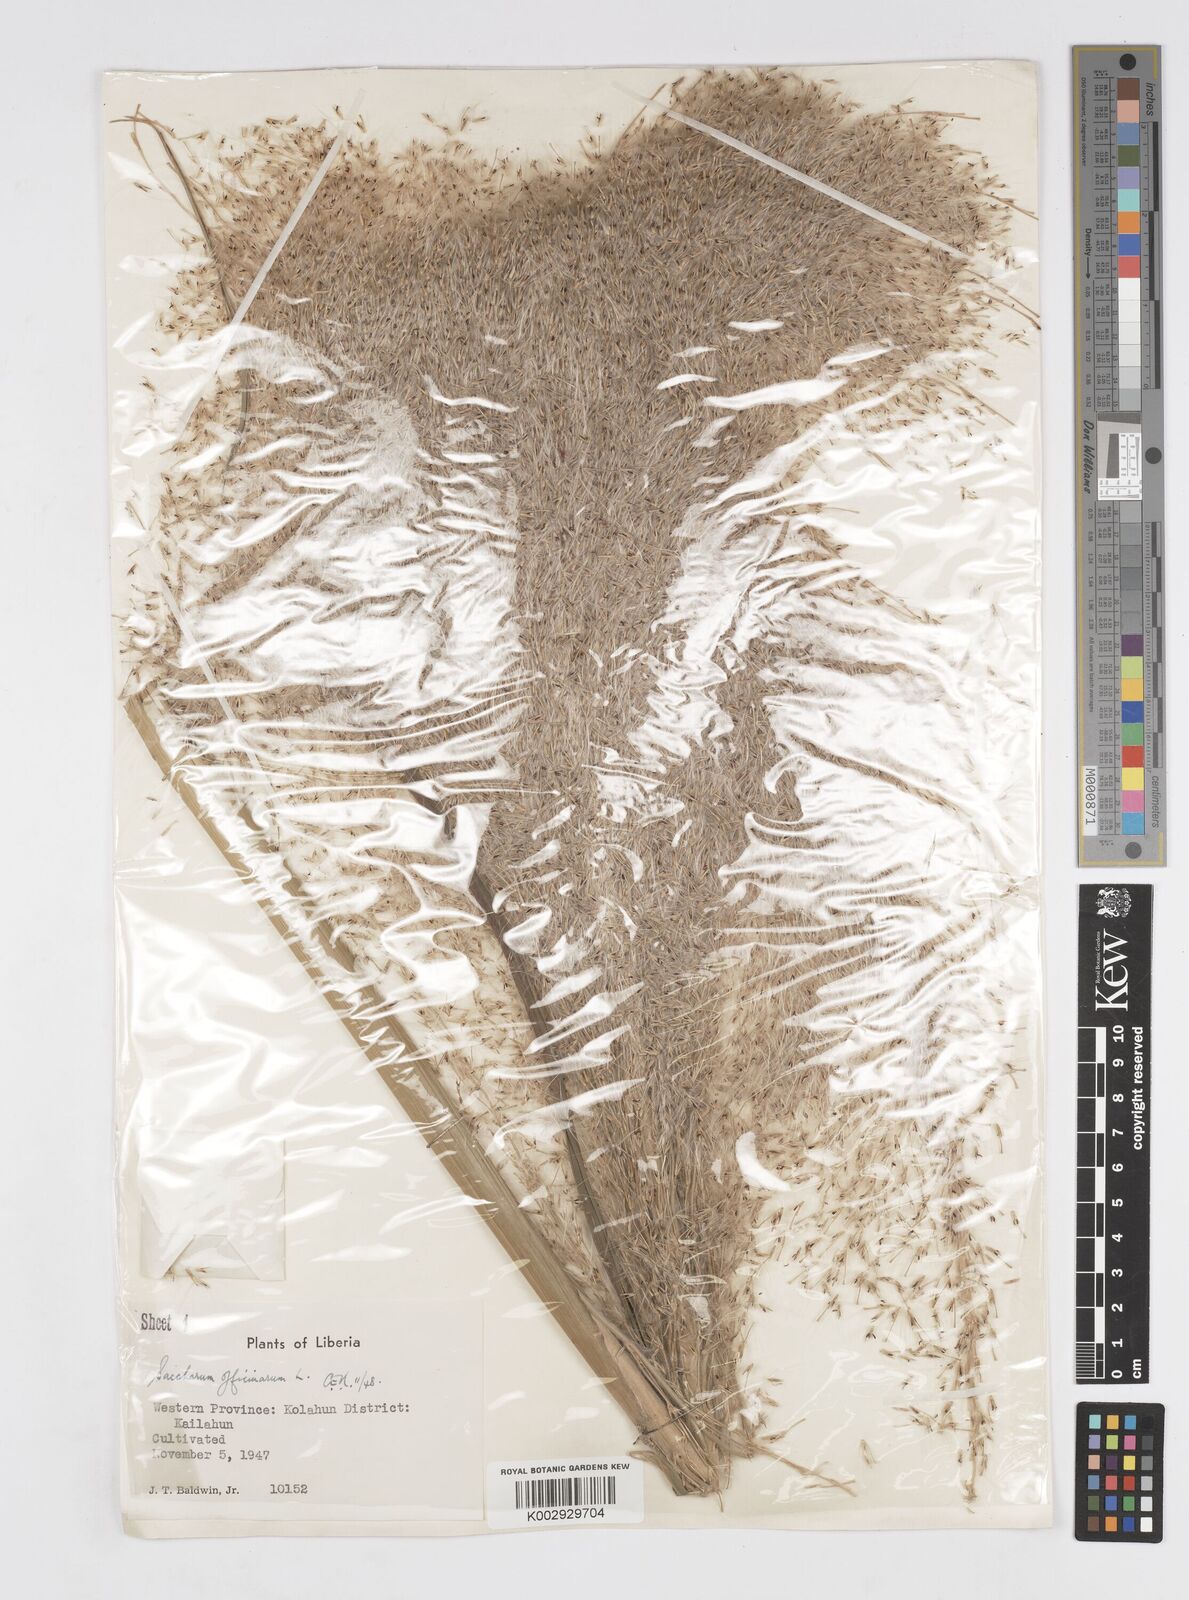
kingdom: Plantae
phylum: Tracheophyta
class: Liliopsida
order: Poales
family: Poaceae
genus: Saccharum
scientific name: Saccharum officinarum
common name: Sugarcane
